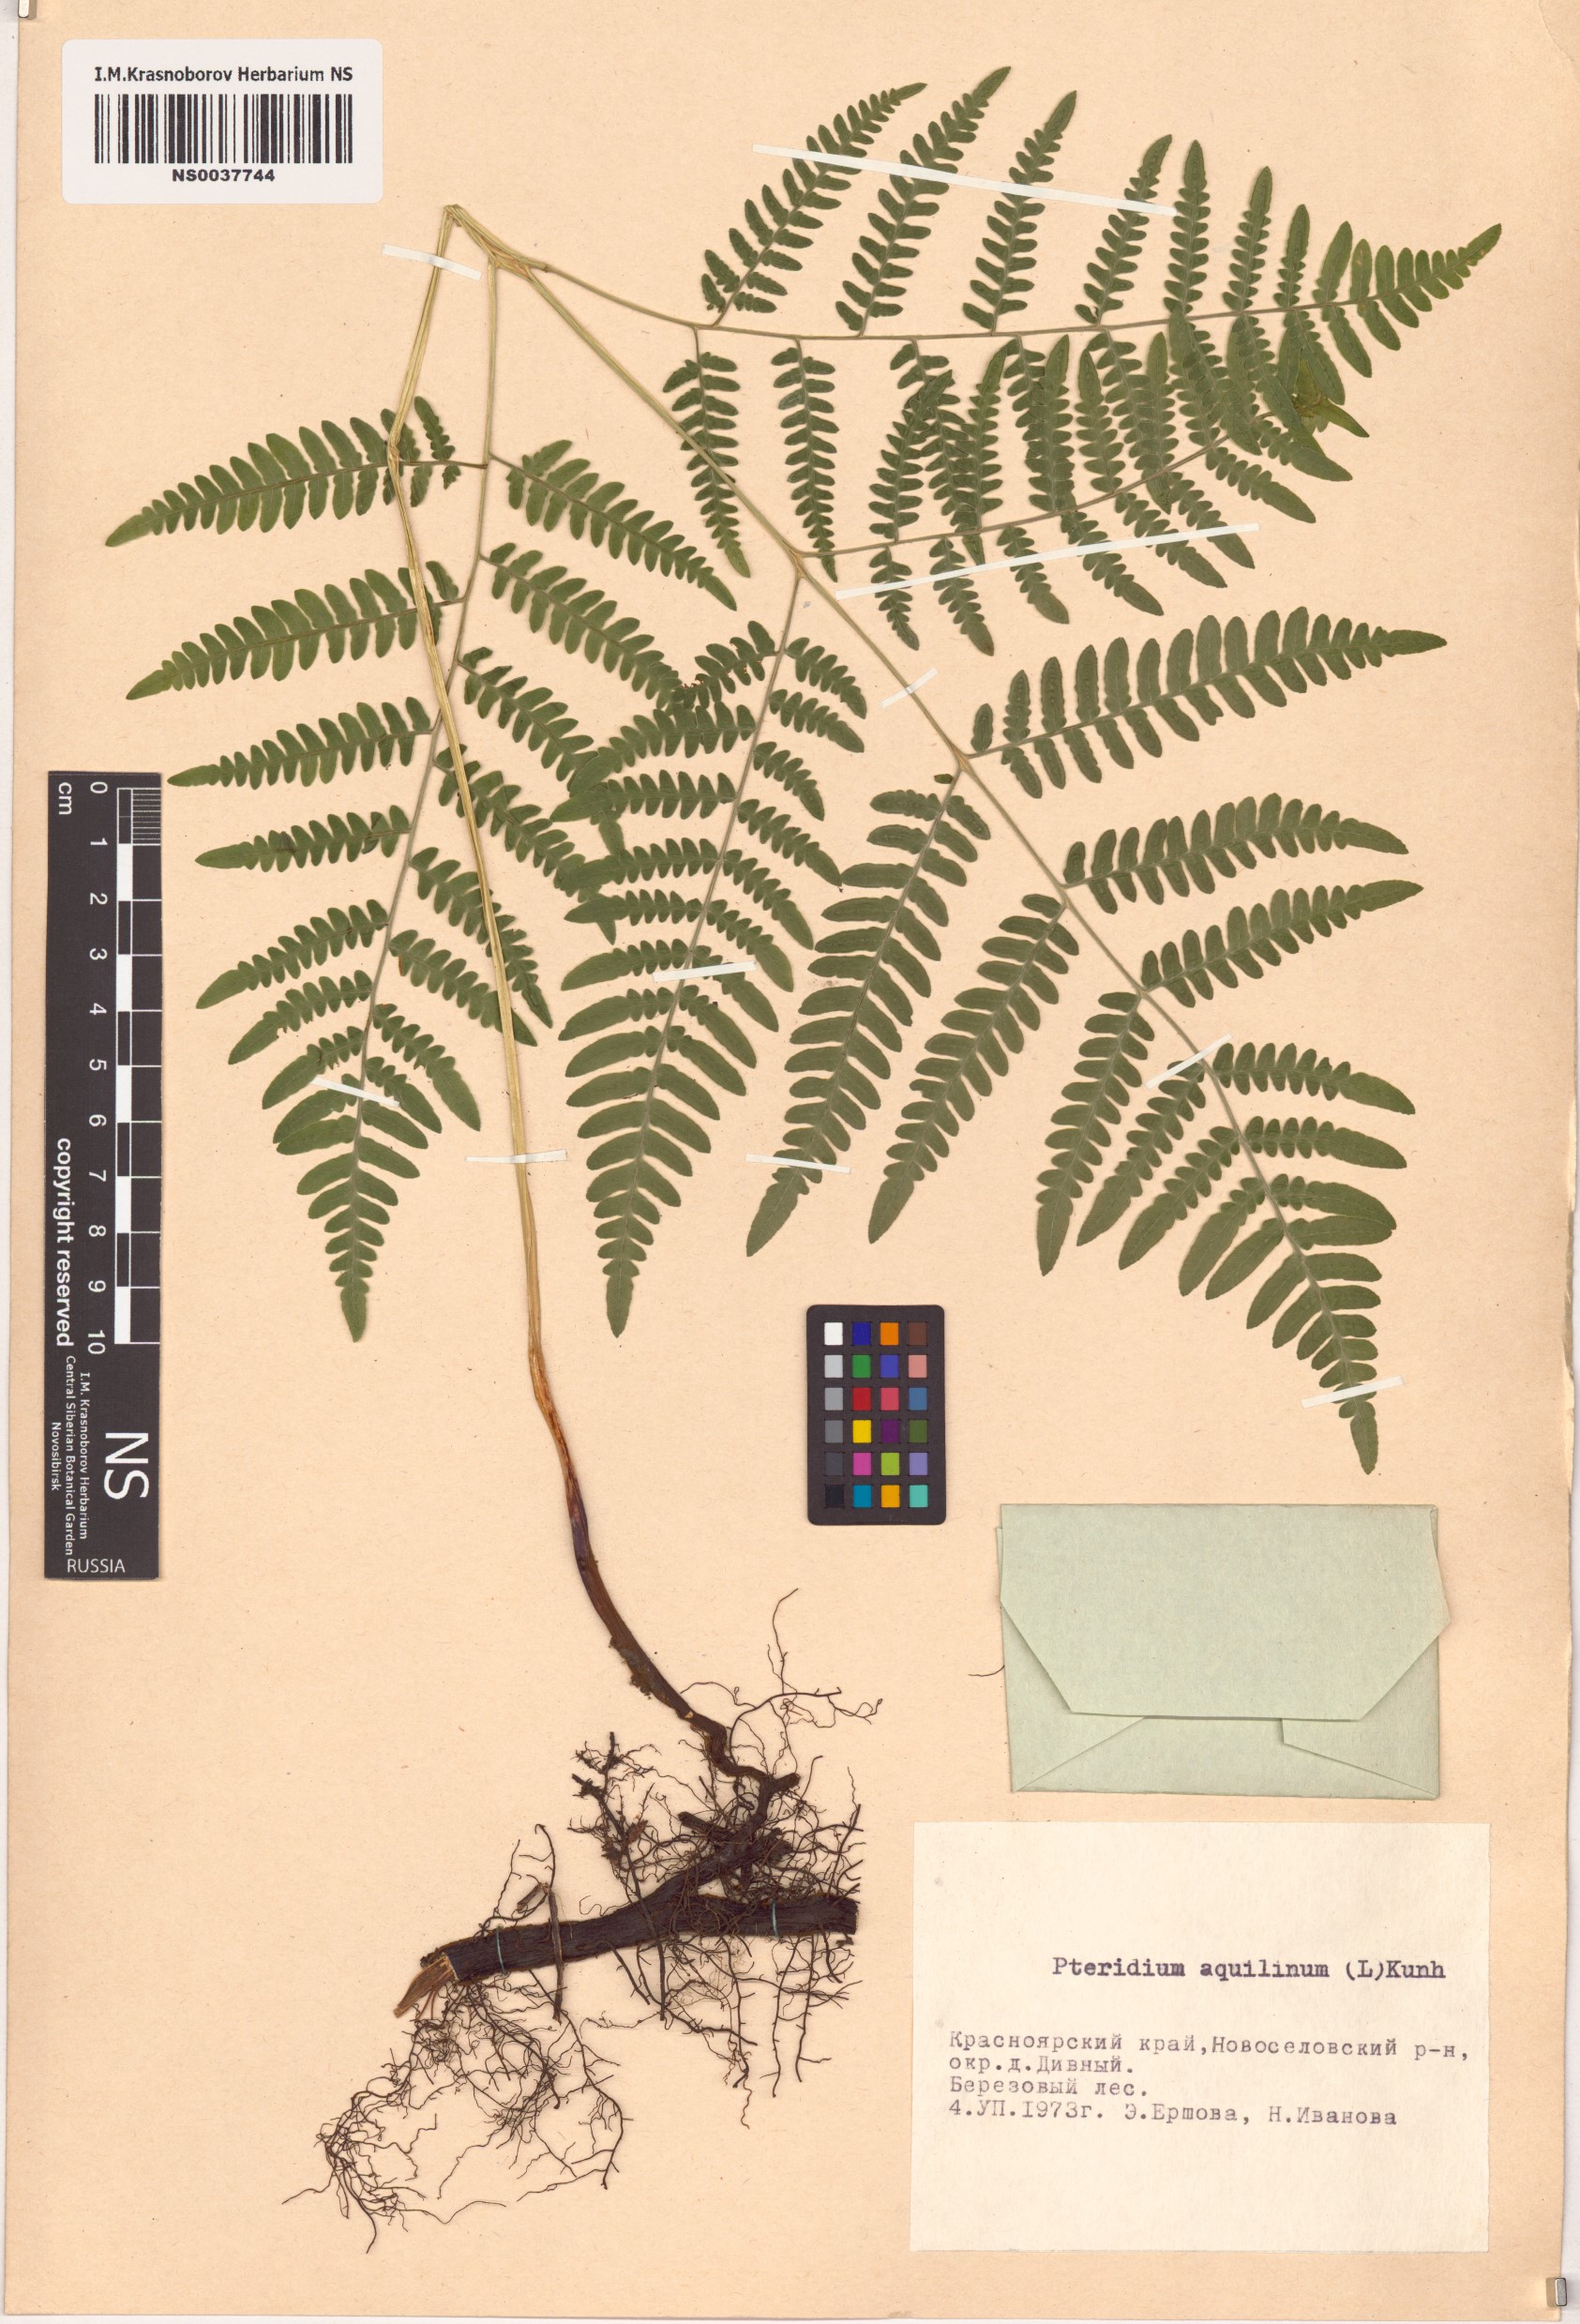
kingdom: Plantae
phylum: Tracheophyta
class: Polypodiopsida
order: Polypodiales
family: Dennstaedtiaceae
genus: Pteridium
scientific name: Pteridium aquilinum
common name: Bracken
